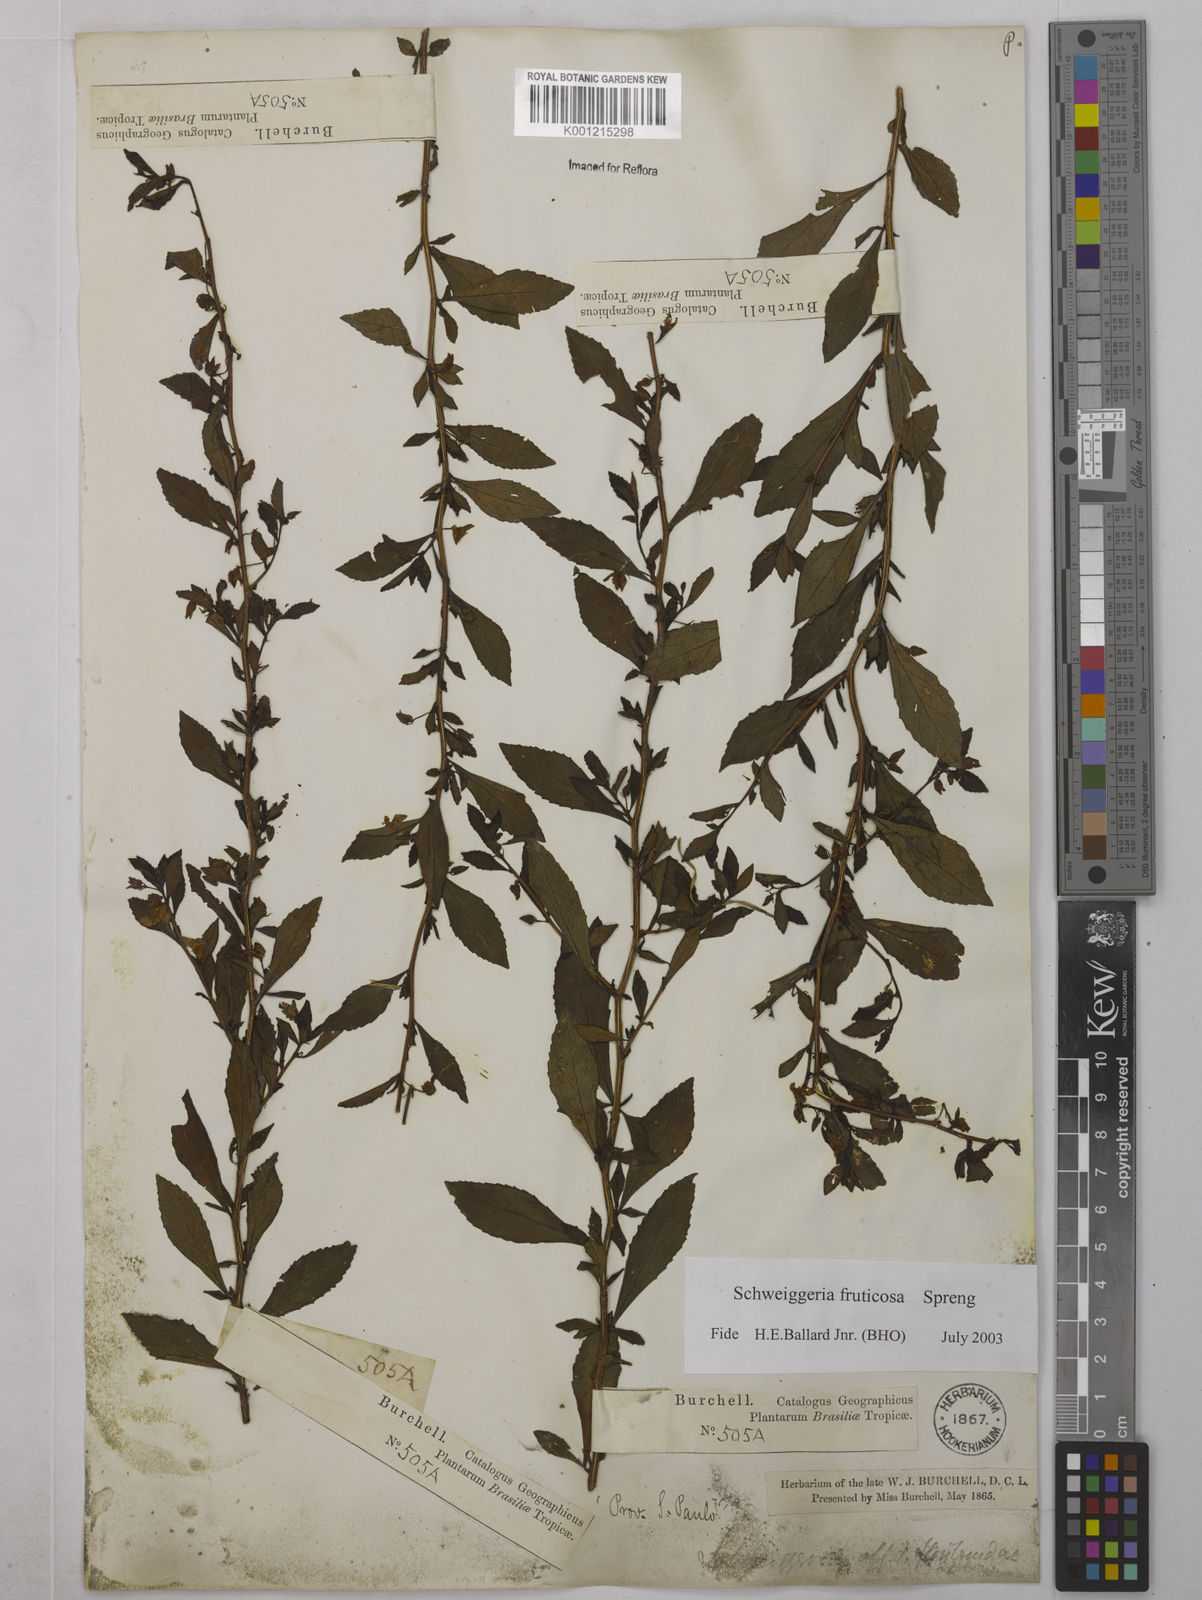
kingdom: Plantae
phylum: Tracheophyta
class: Magnoliopsida
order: Malpighiales
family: Violaceae
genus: Schweiggeria
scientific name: Schweiggeria fruticosa
